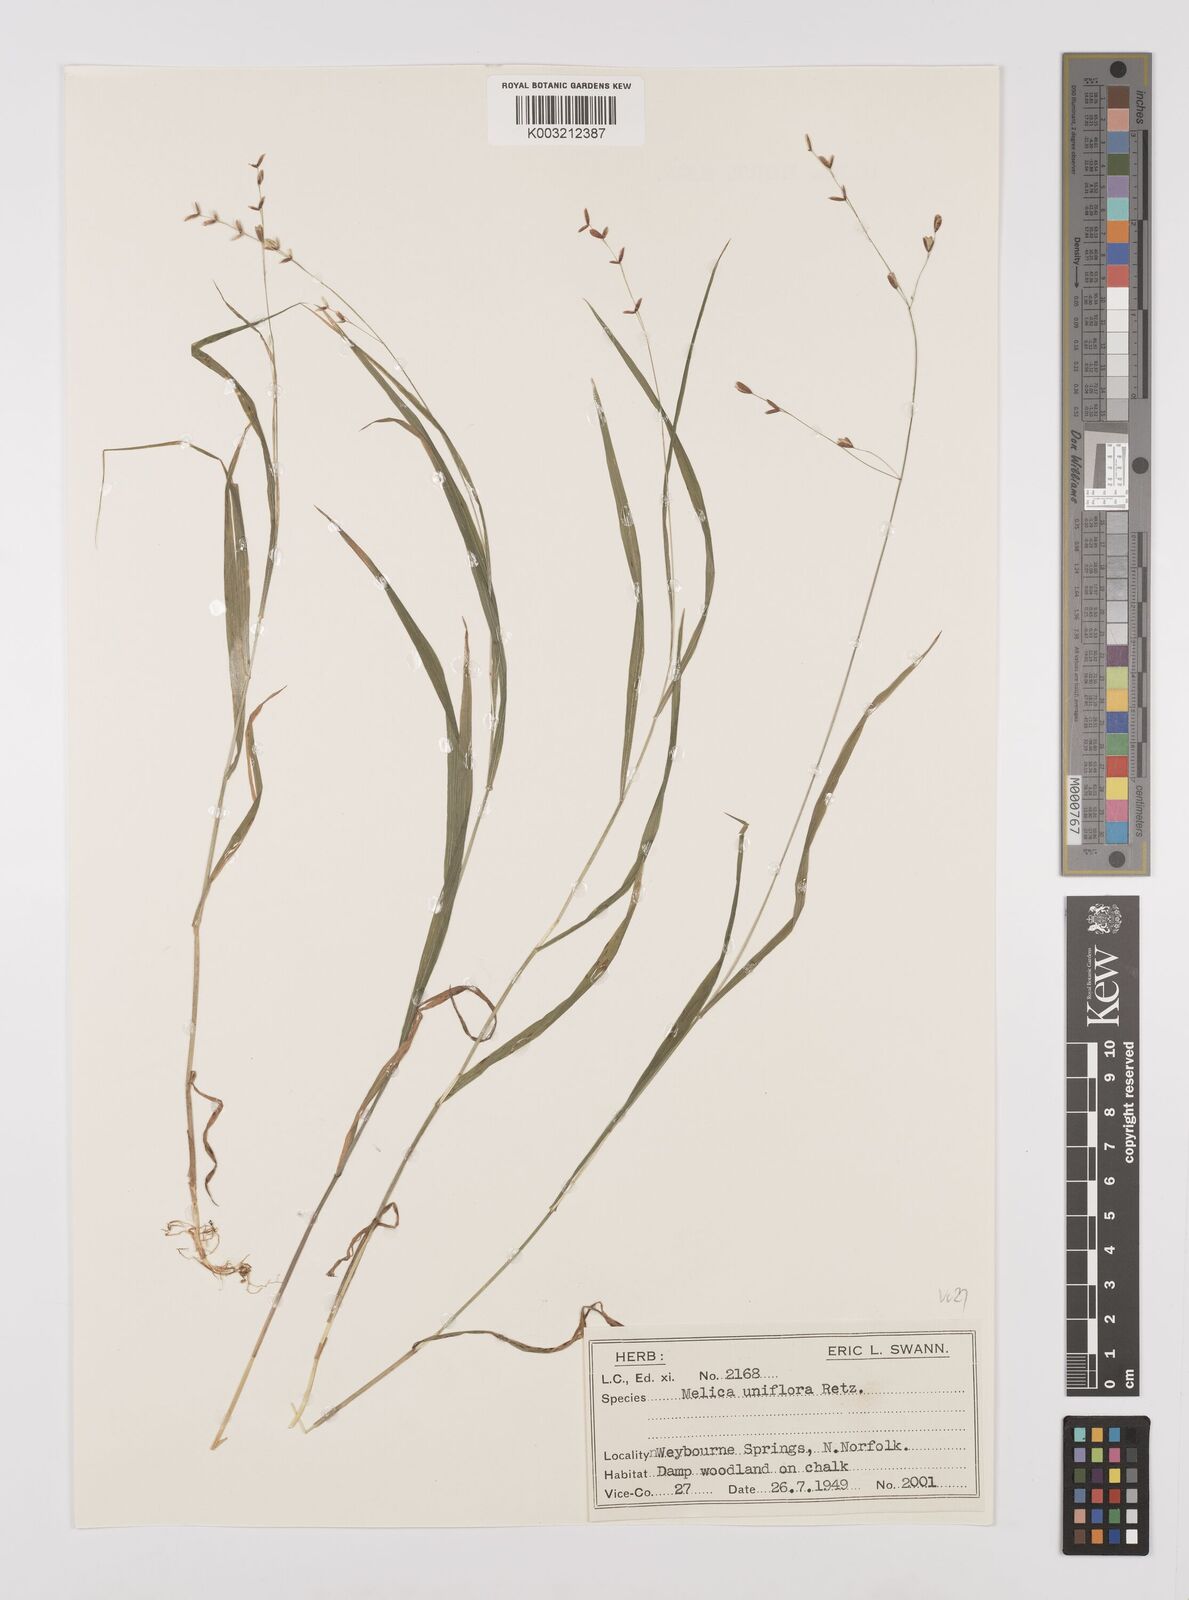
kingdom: Plantae
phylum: Tracheophyta
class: Liliopsida
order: Poales
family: Poaceae
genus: Melica
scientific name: Melica uniflora
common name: Wood melick
